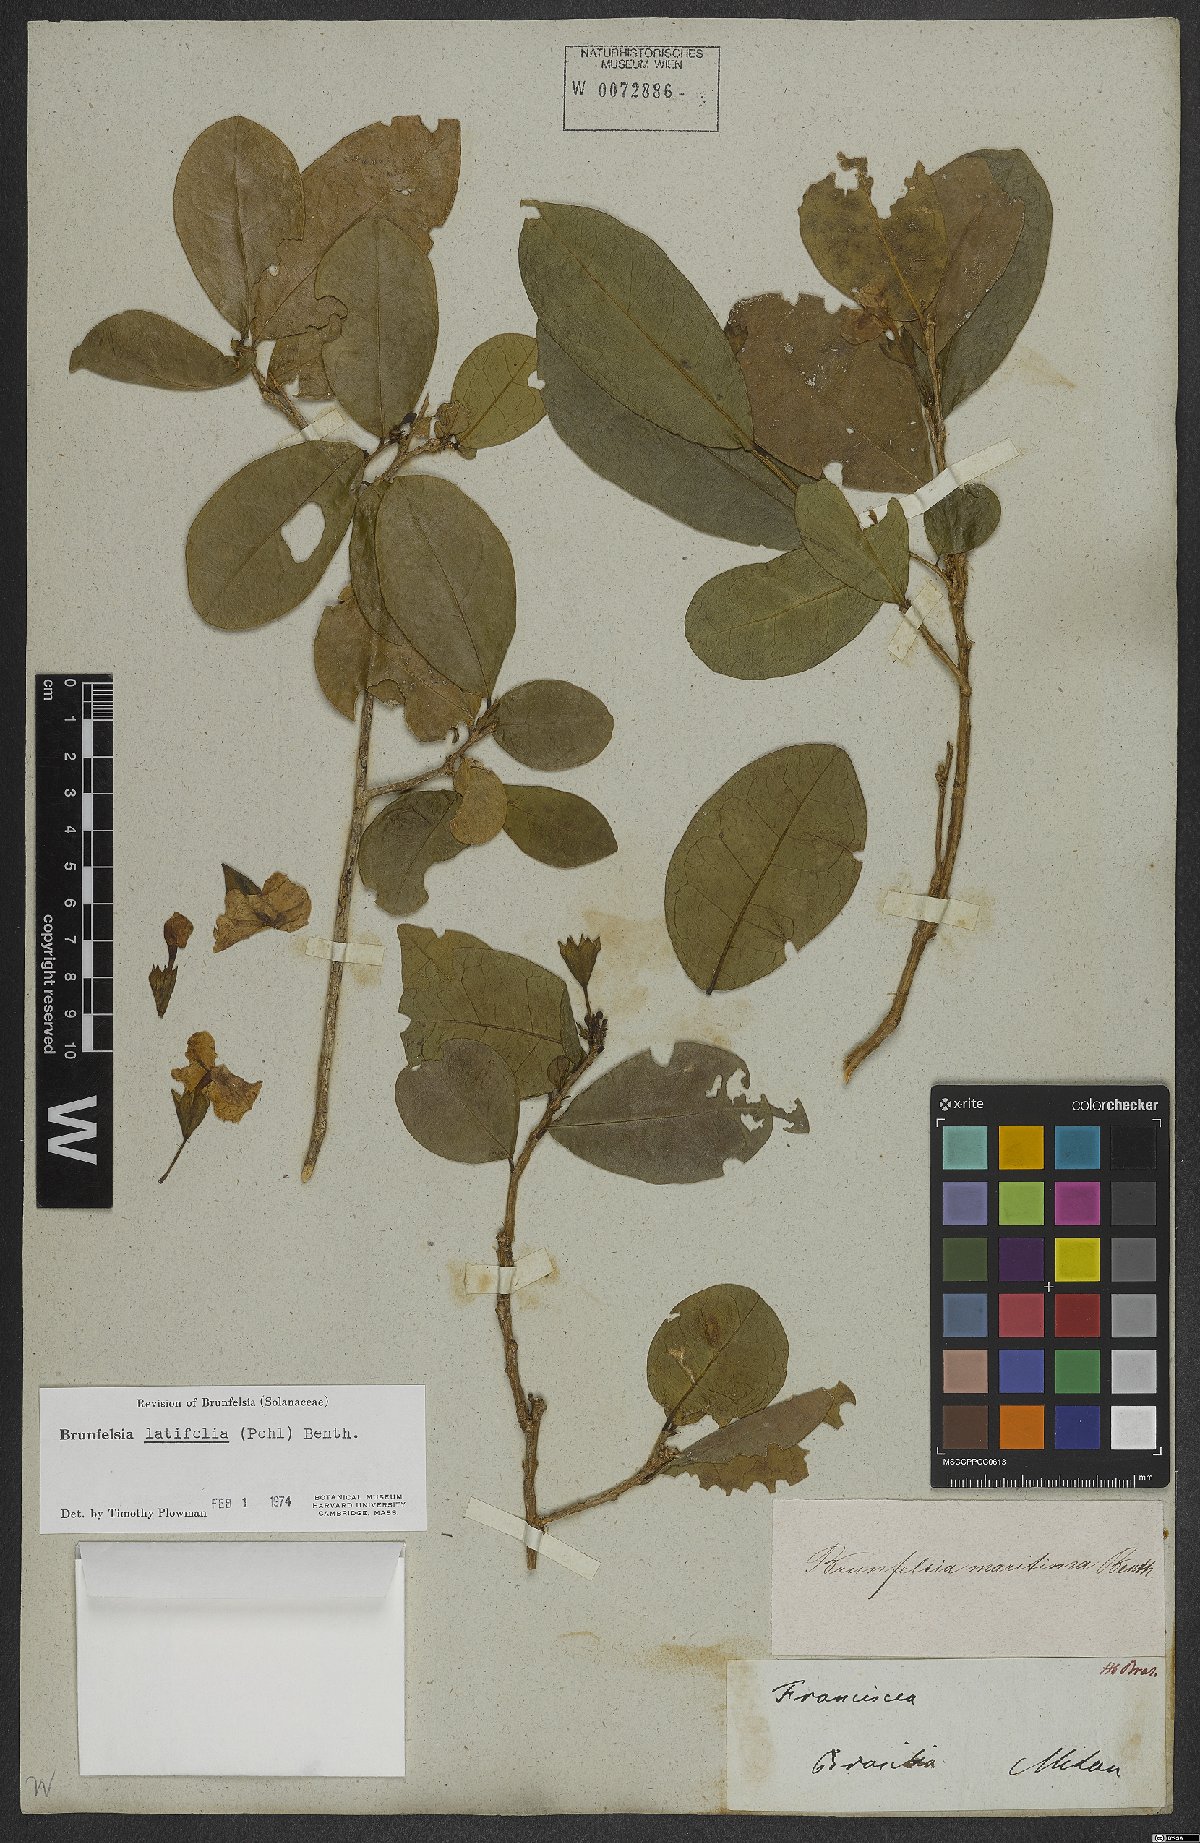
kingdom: Plantae
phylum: Tracheophyta
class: Magnoliopsida
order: Solanales
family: Solanaceae
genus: Brunfelsia
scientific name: Brunfelsia latifolia
